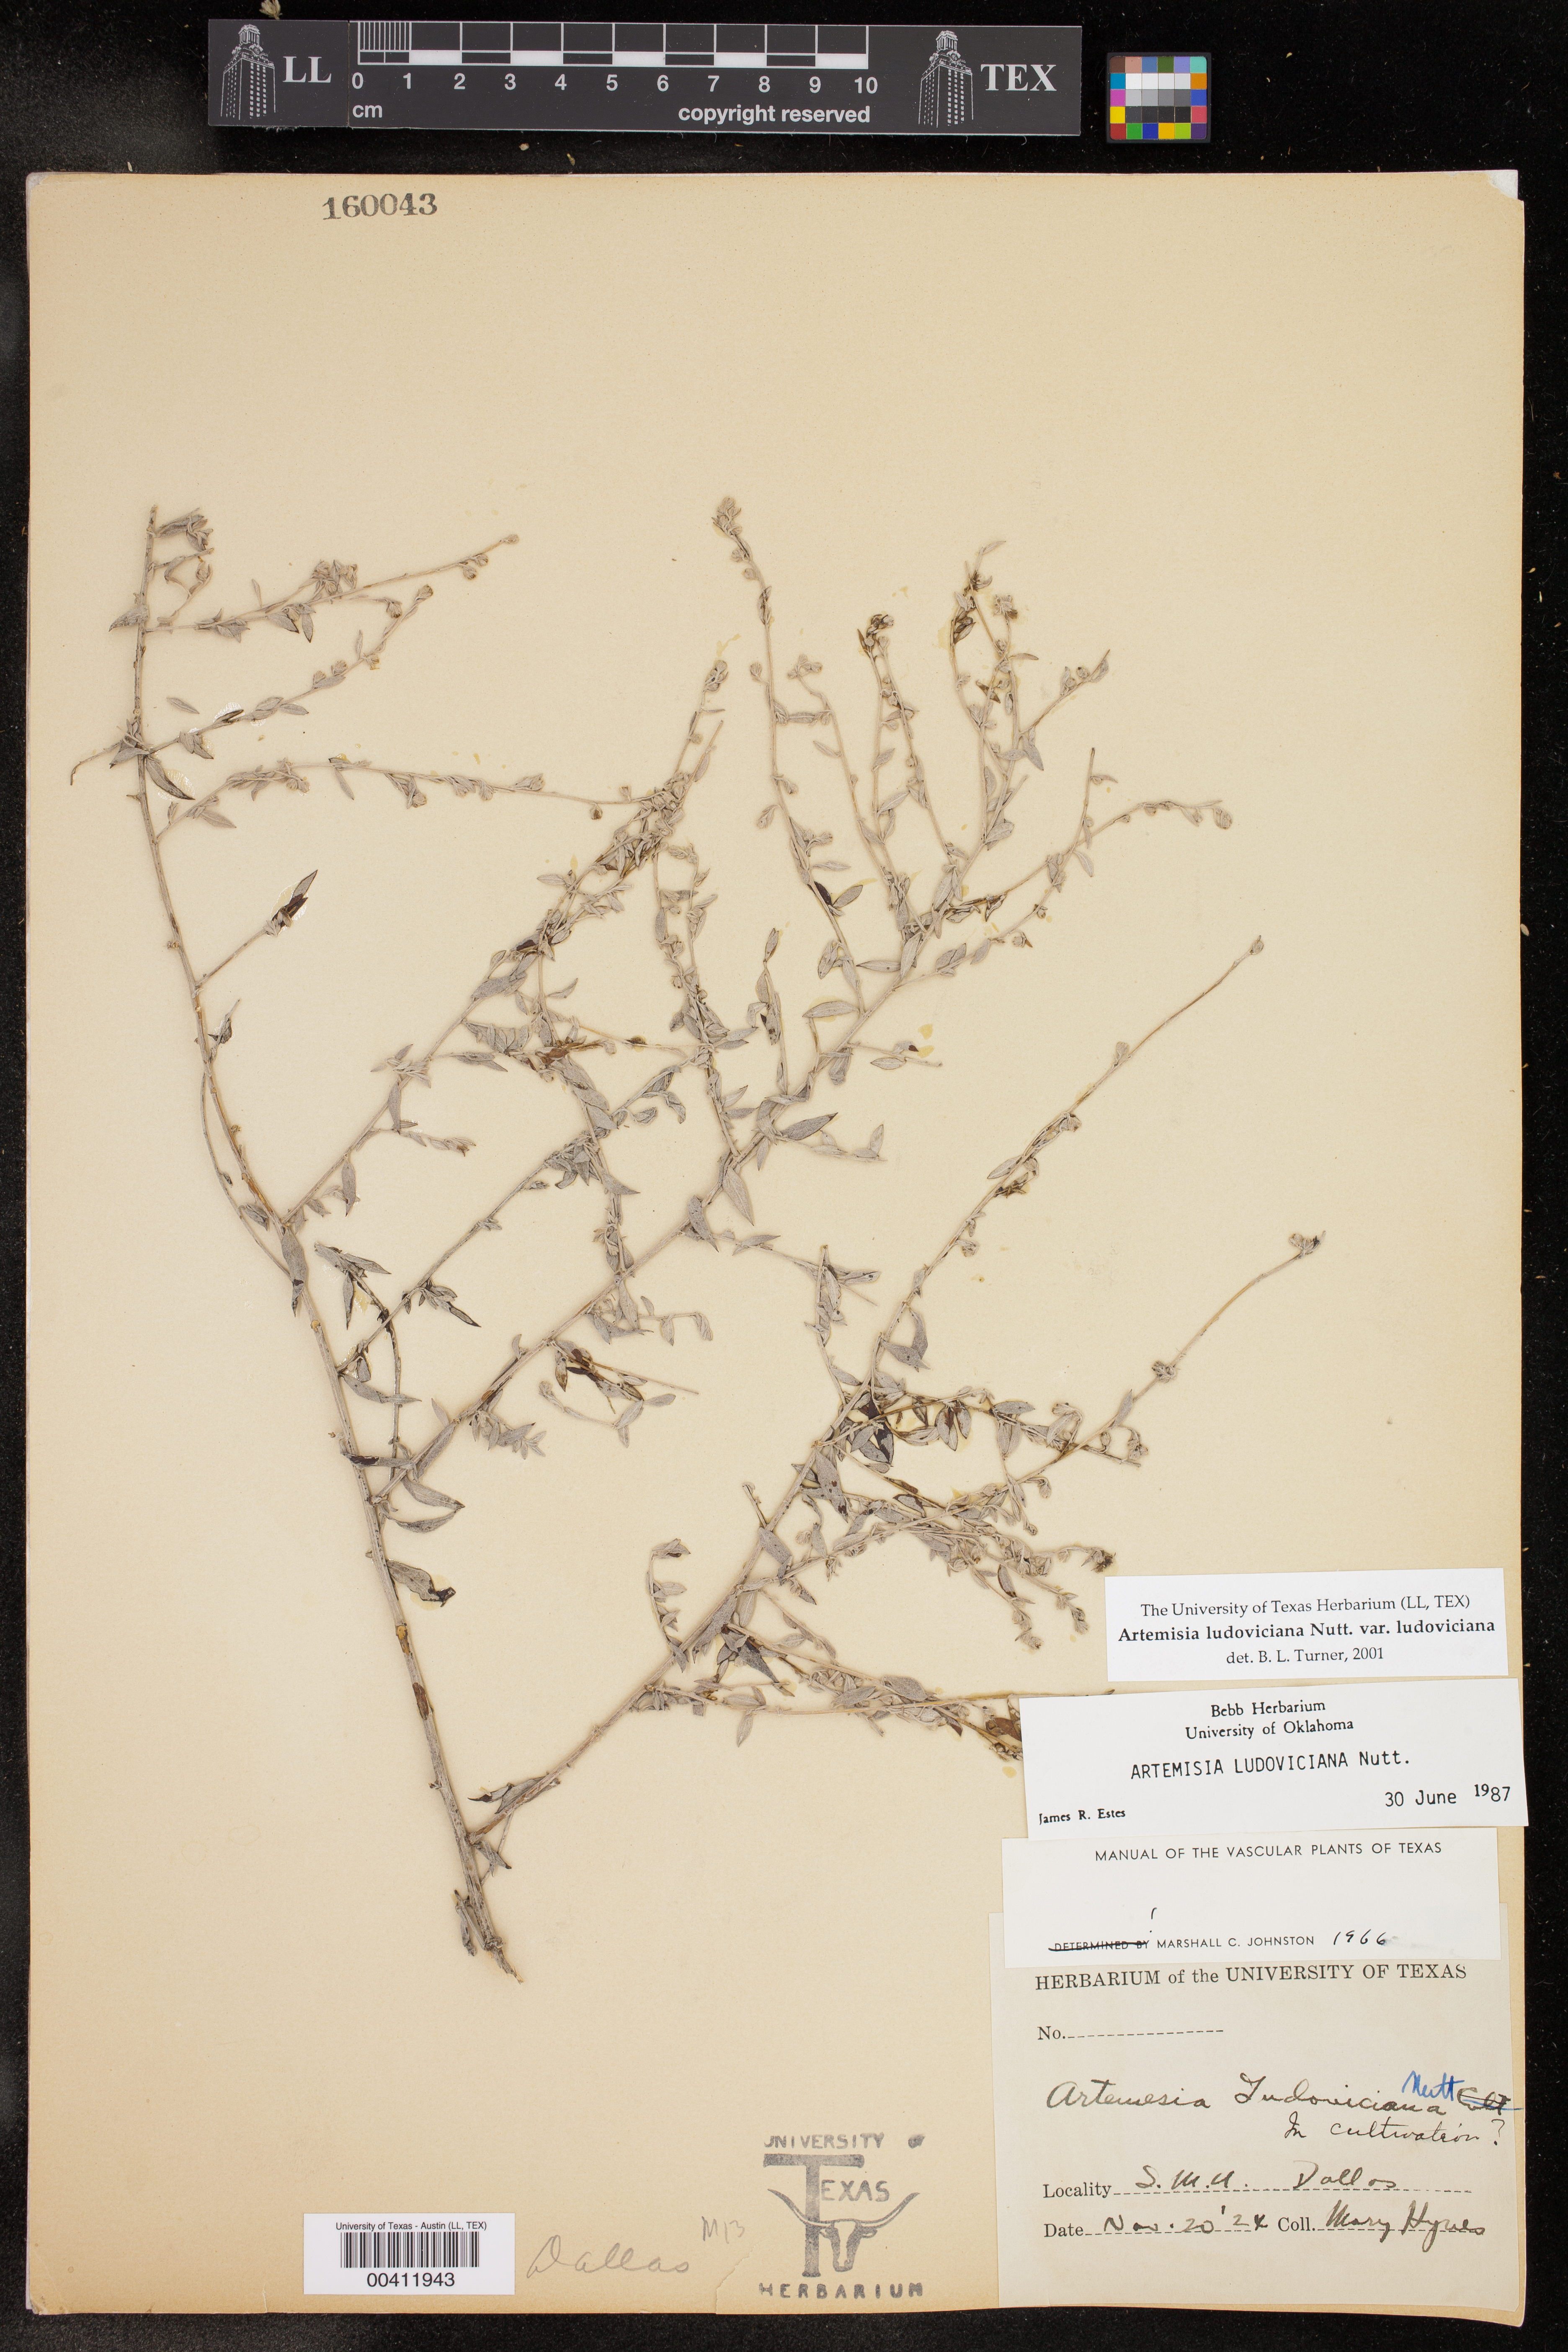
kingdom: Plantae
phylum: Tracheophyta
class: Magnoliopsida
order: Asterales
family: Asteraceae
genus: Artemisia
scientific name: Artemisia ludoviciana
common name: Western mugwort
